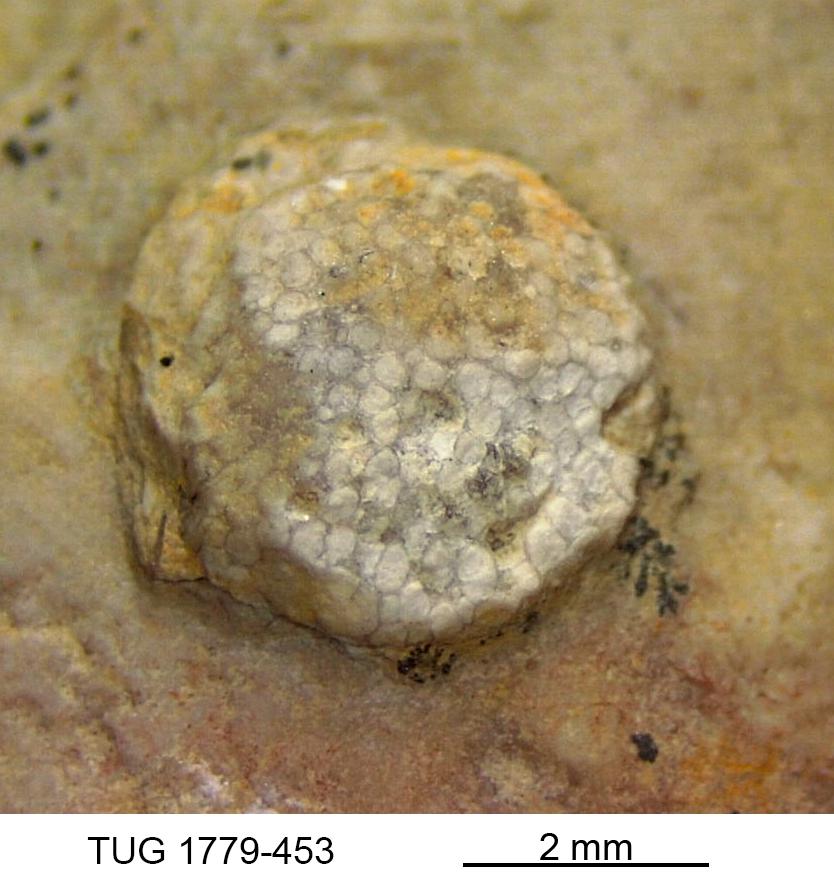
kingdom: Animalia
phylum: Bryozoa
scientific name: Bryozoa
